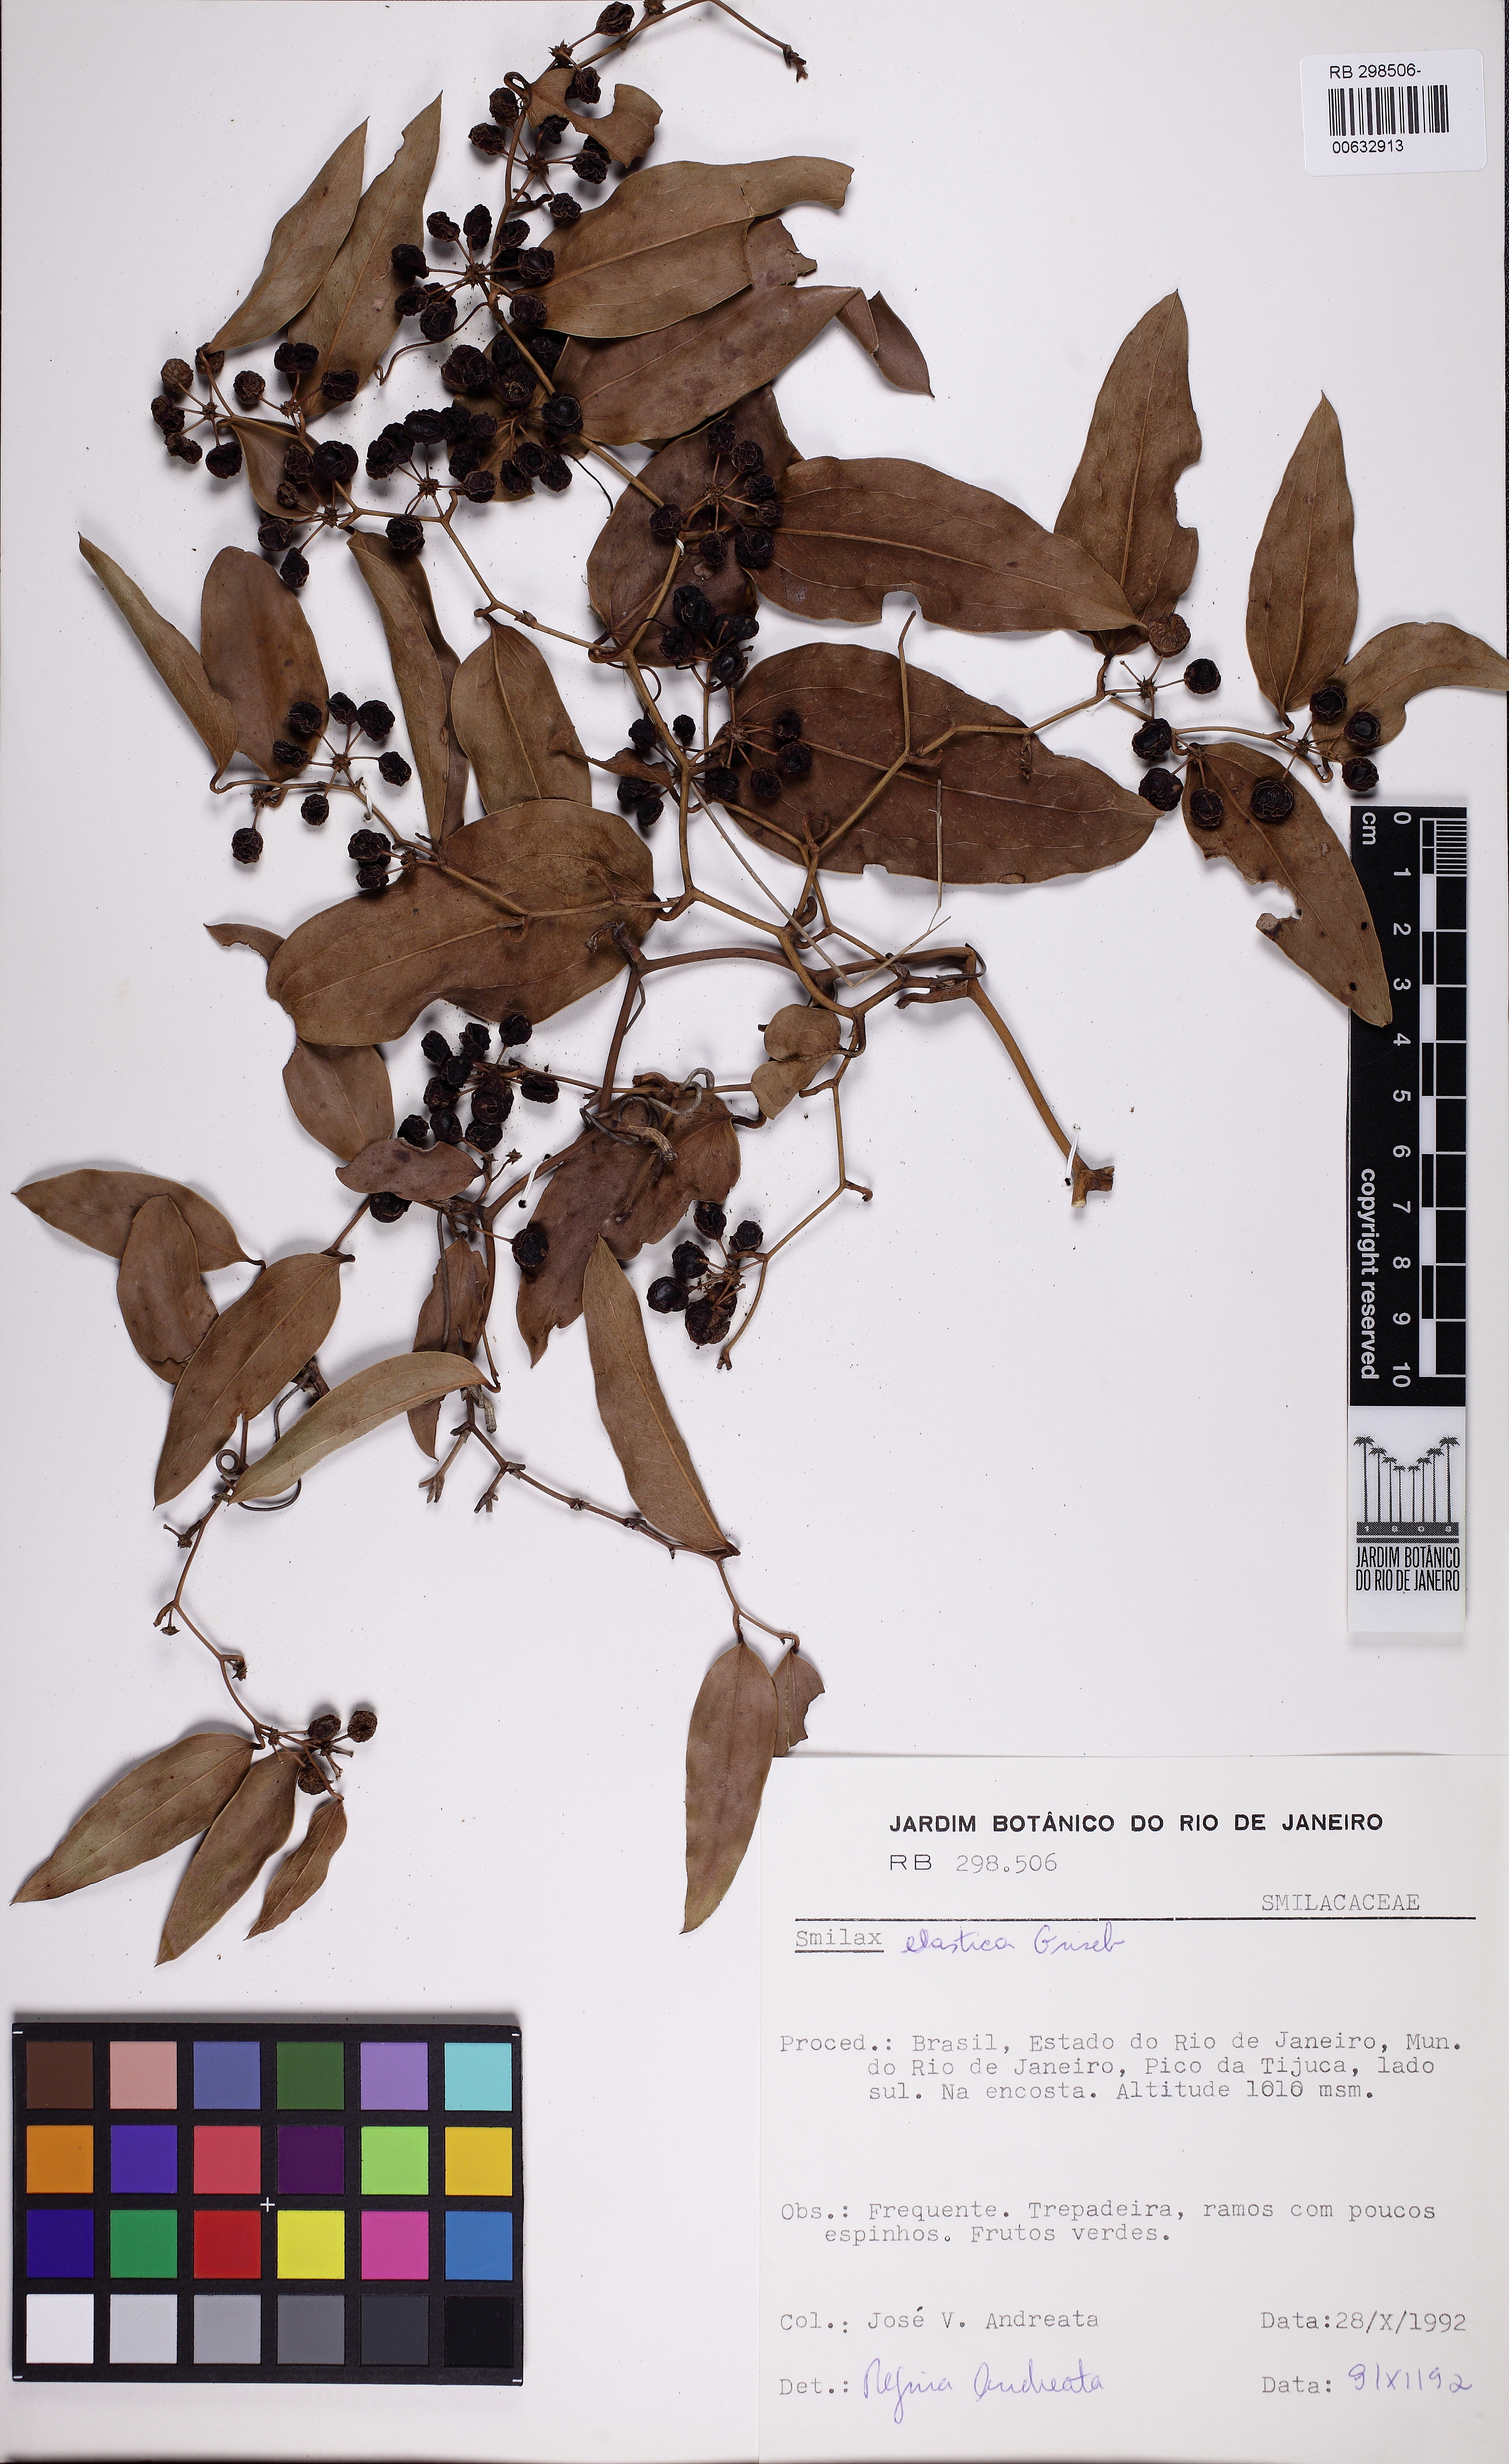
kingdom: Plantae
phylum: Tracheophyta
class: Liliopsida
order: Liliales
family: Smilacaceae
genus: Smilax
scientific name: Smilax elastica
